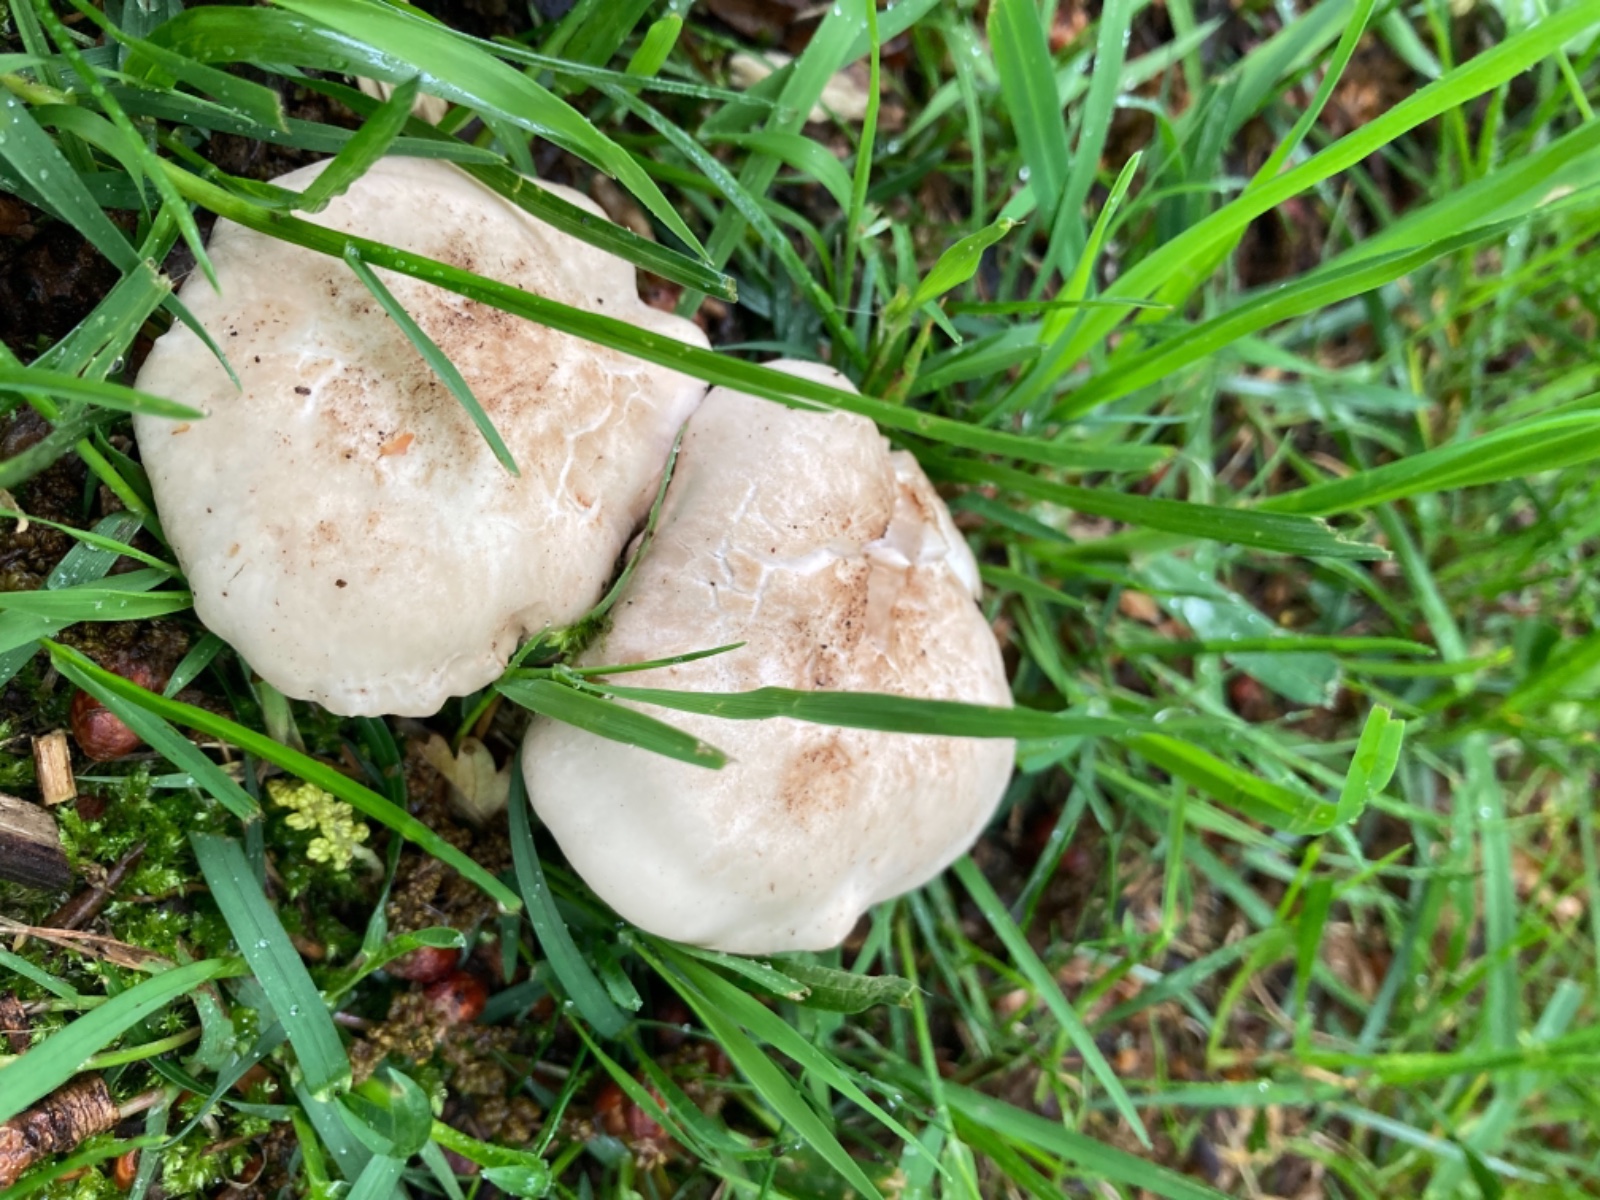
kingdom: Fungi
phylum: Basidiomycota
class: Agaricomycetes
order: Agaricales
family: Lyophyllaceae
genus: Calocybe
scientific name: Calocybe gambosa
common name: vårmusseron
